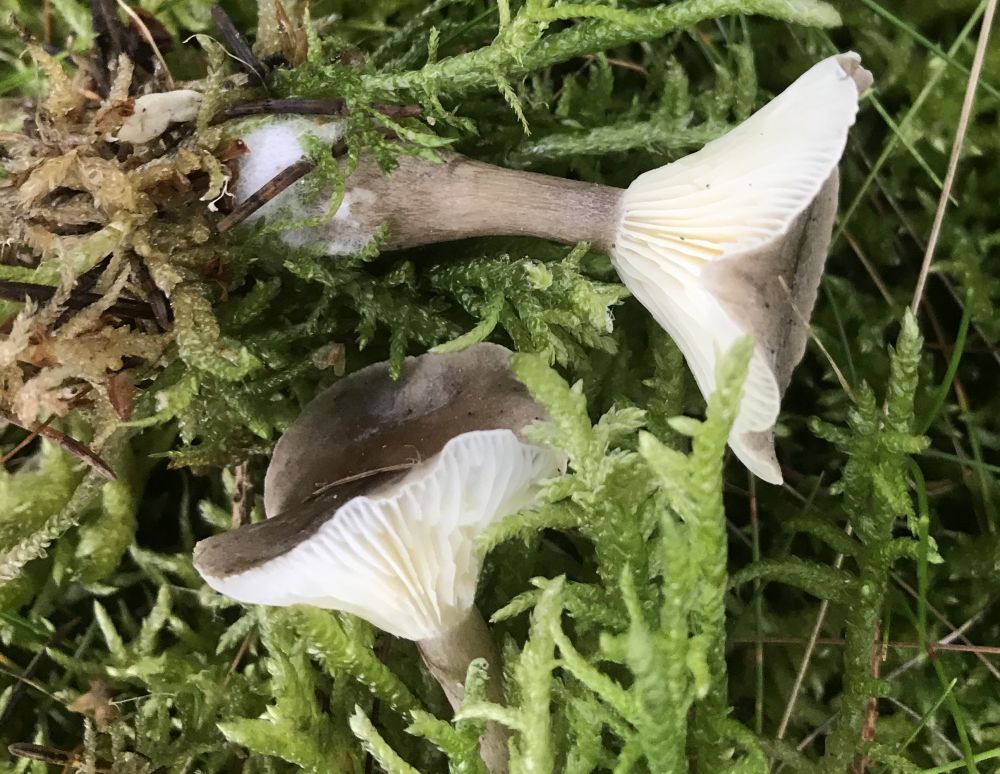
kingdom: Fungi
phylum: Basidiomycota
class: Agaricomycetes
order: Agaricales
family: Hygrophoraceae
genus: Ampulloclitocybe
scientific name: Ampulloclitocybe clavipes
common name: køllefod
